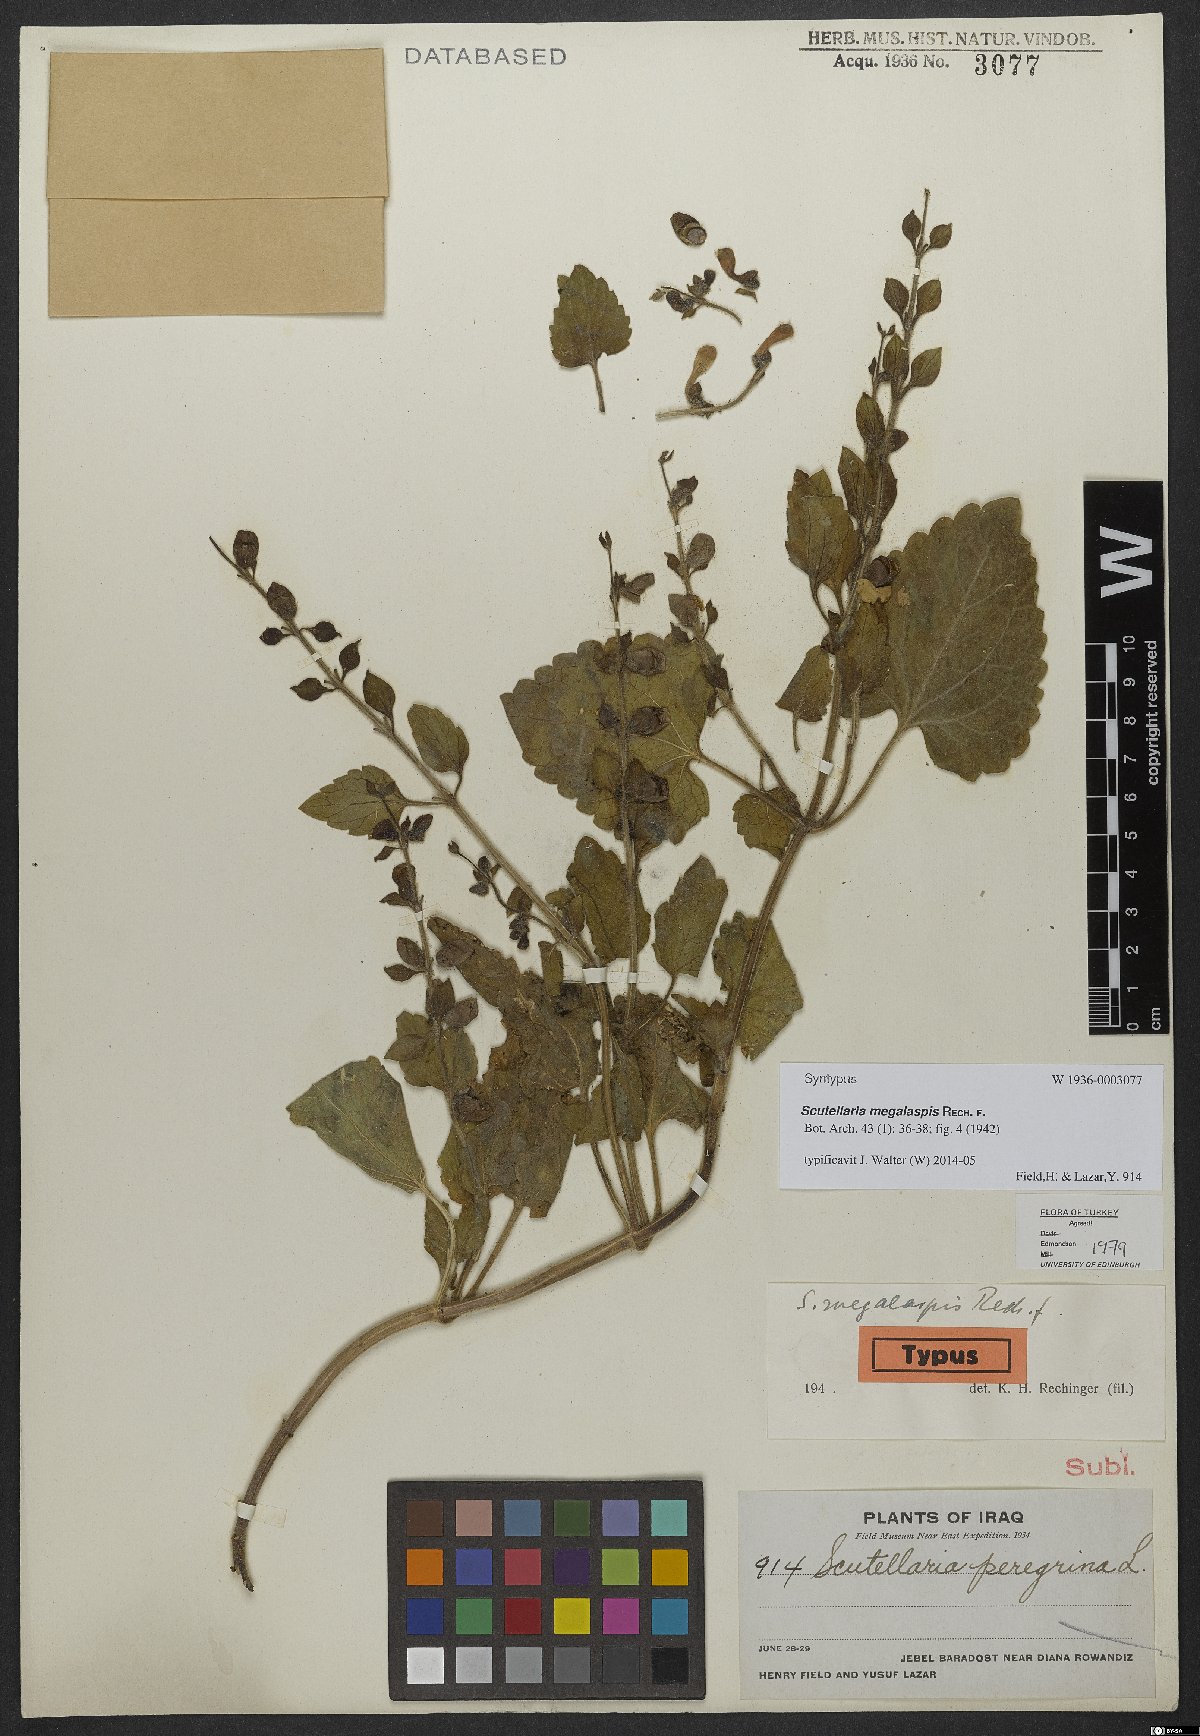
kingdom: Plantae
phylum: Tracheophyta
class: Magnoliopsida
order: Lamiales
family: Lamiaceae
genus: Scutellaria
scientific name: Scutellaria megalaspis
